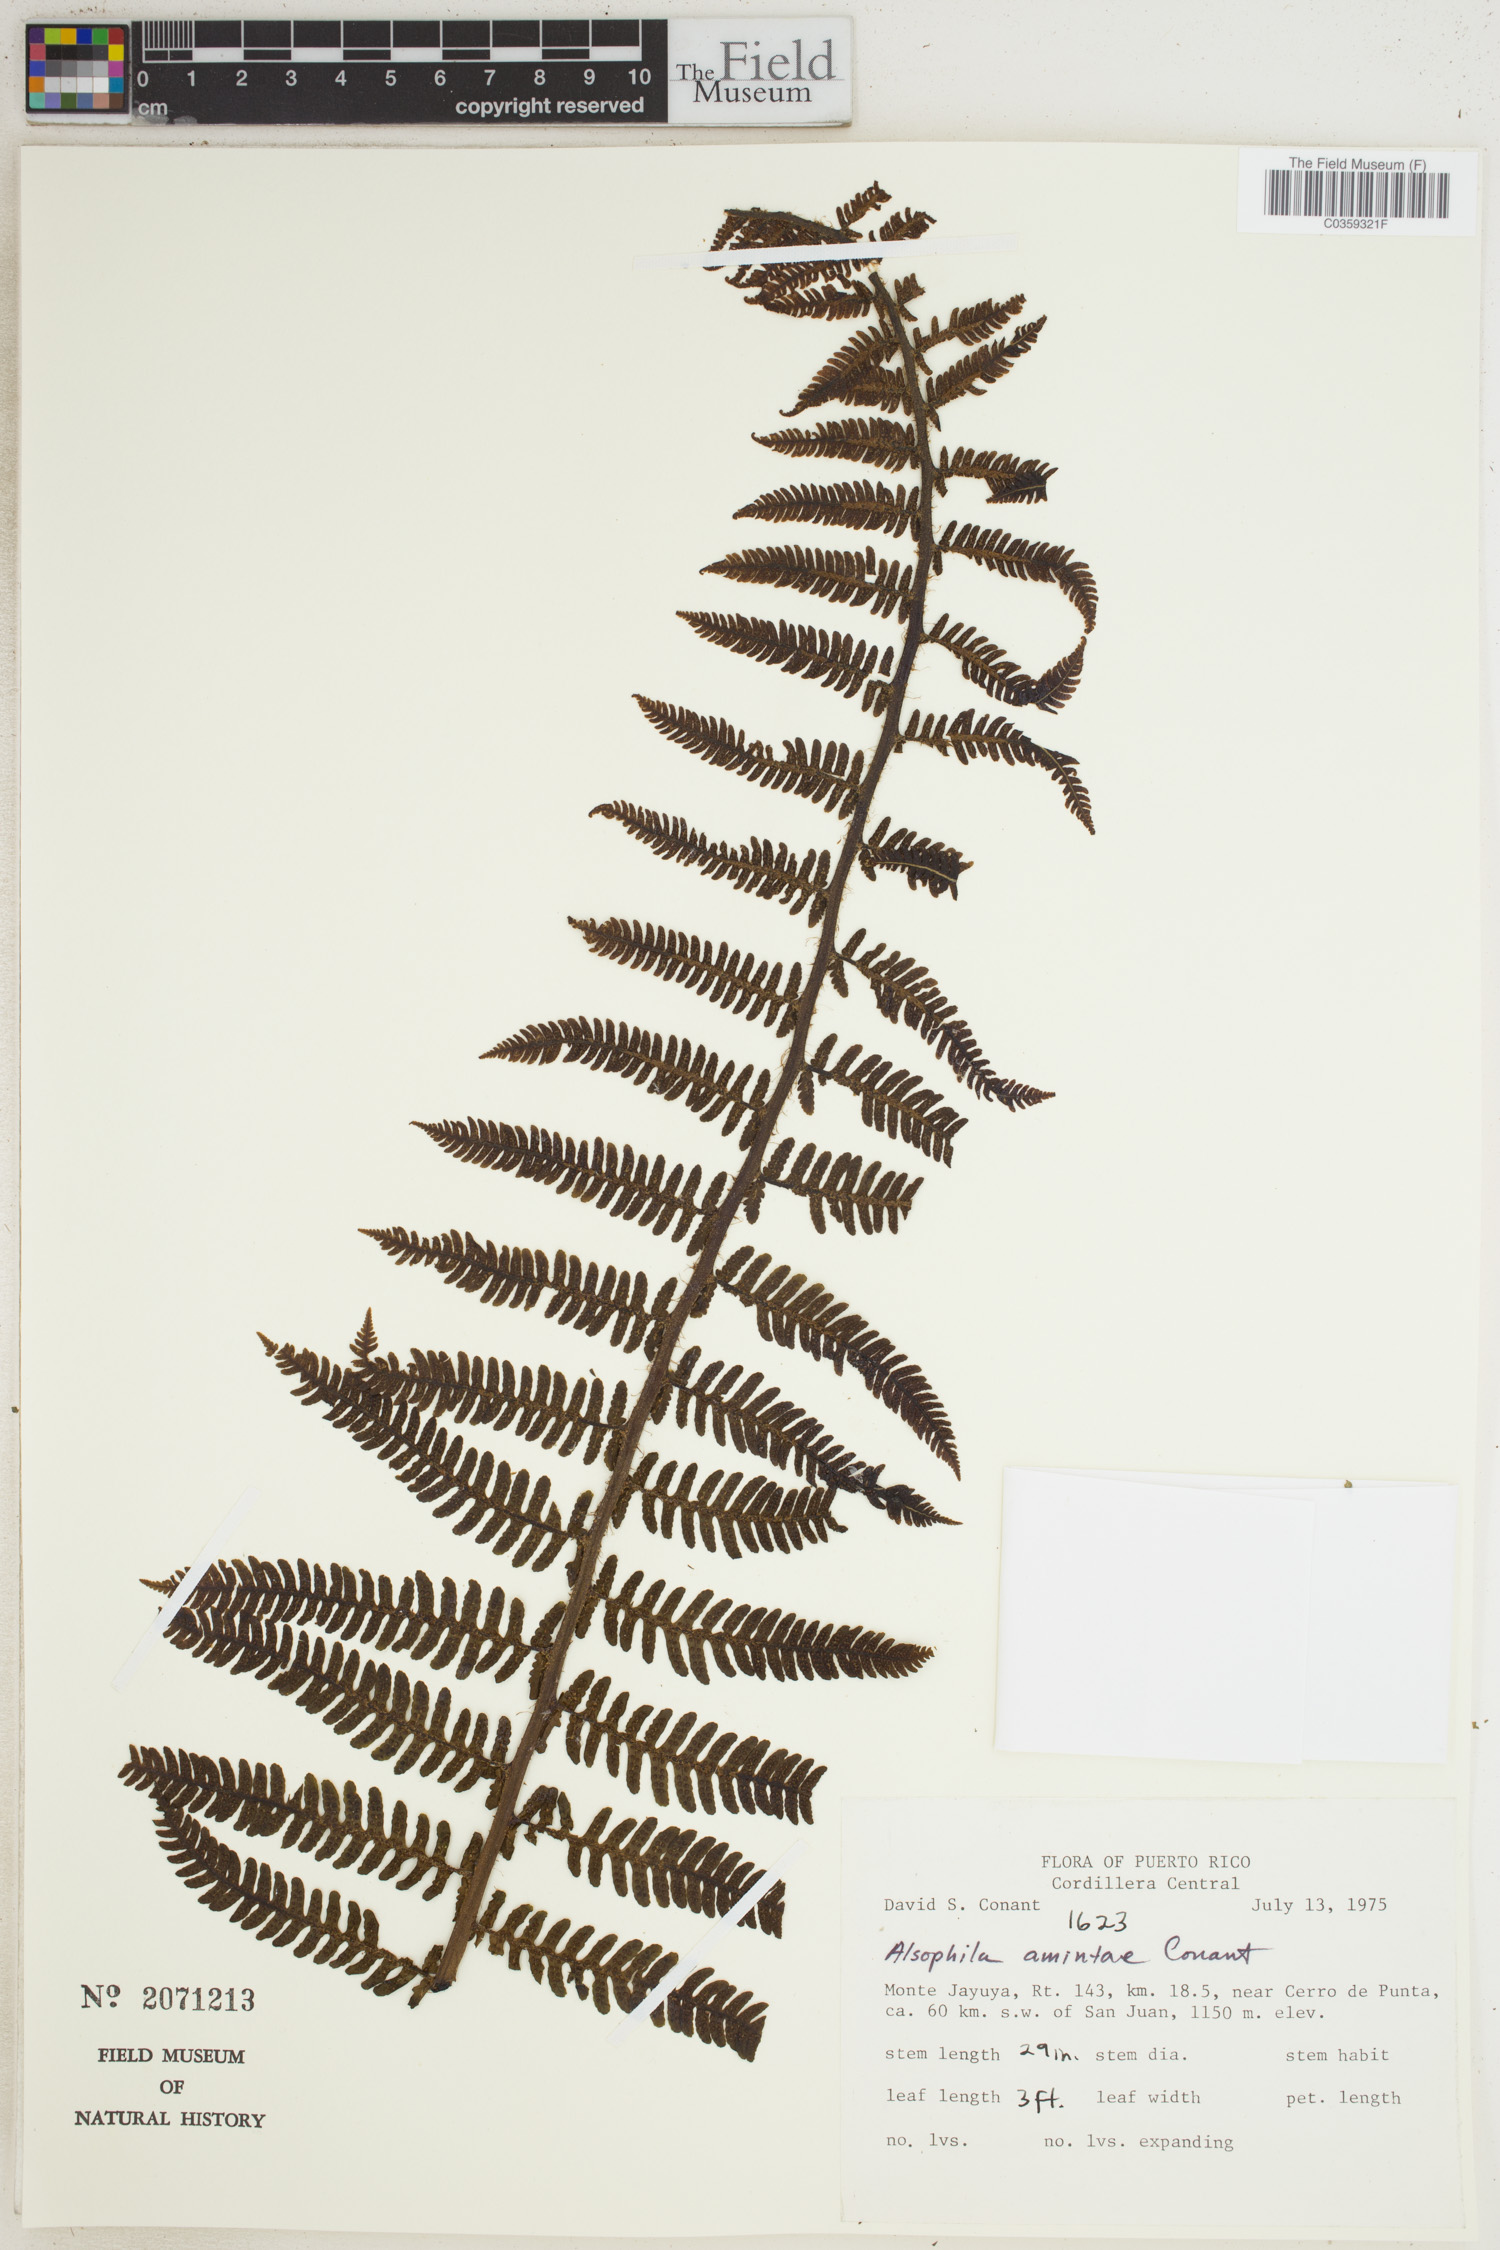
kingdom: Plantae
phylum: Tracheophyta
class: Polypodiopsida
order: Cyatheales
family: Cyatheaceae
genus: Alsophila
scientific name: Alsophila dryopteroides
